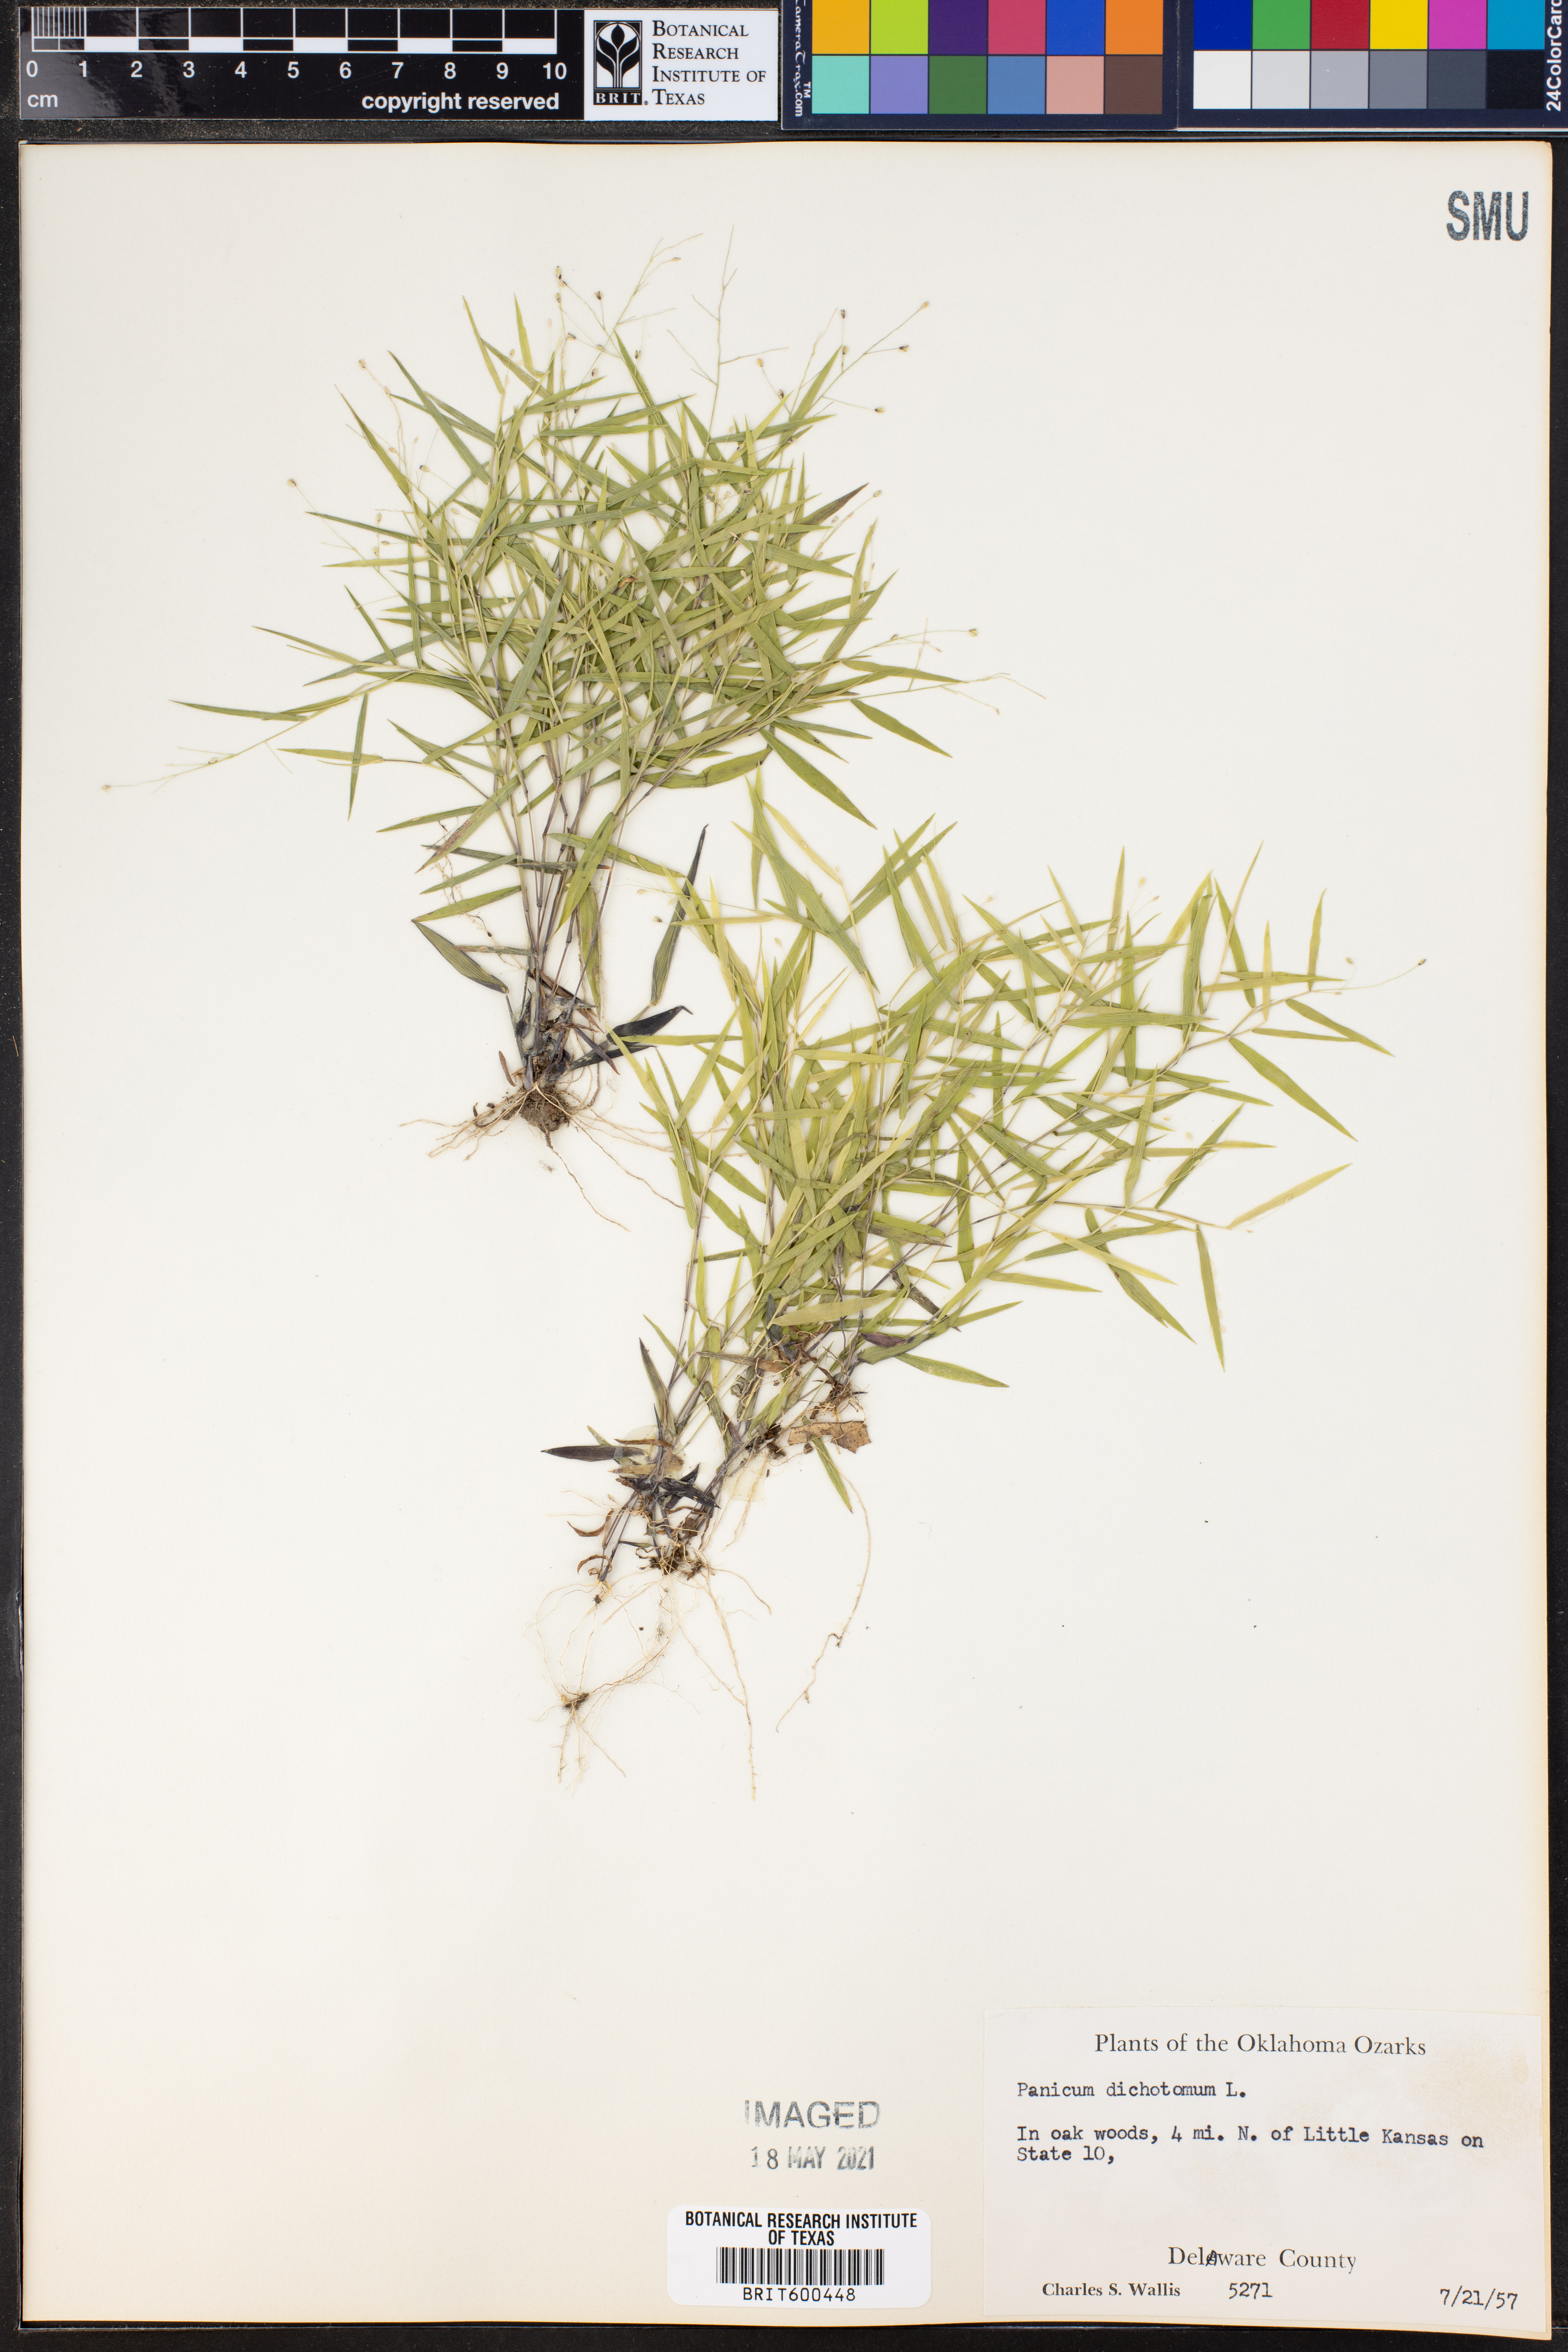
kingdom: Plantae
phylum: Tracheophyta
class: Liliopsida
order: Poales
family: Poaceae
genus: Dichanthelium
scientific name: Dichanthelium dichotomum
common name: Cypress panicgrass
